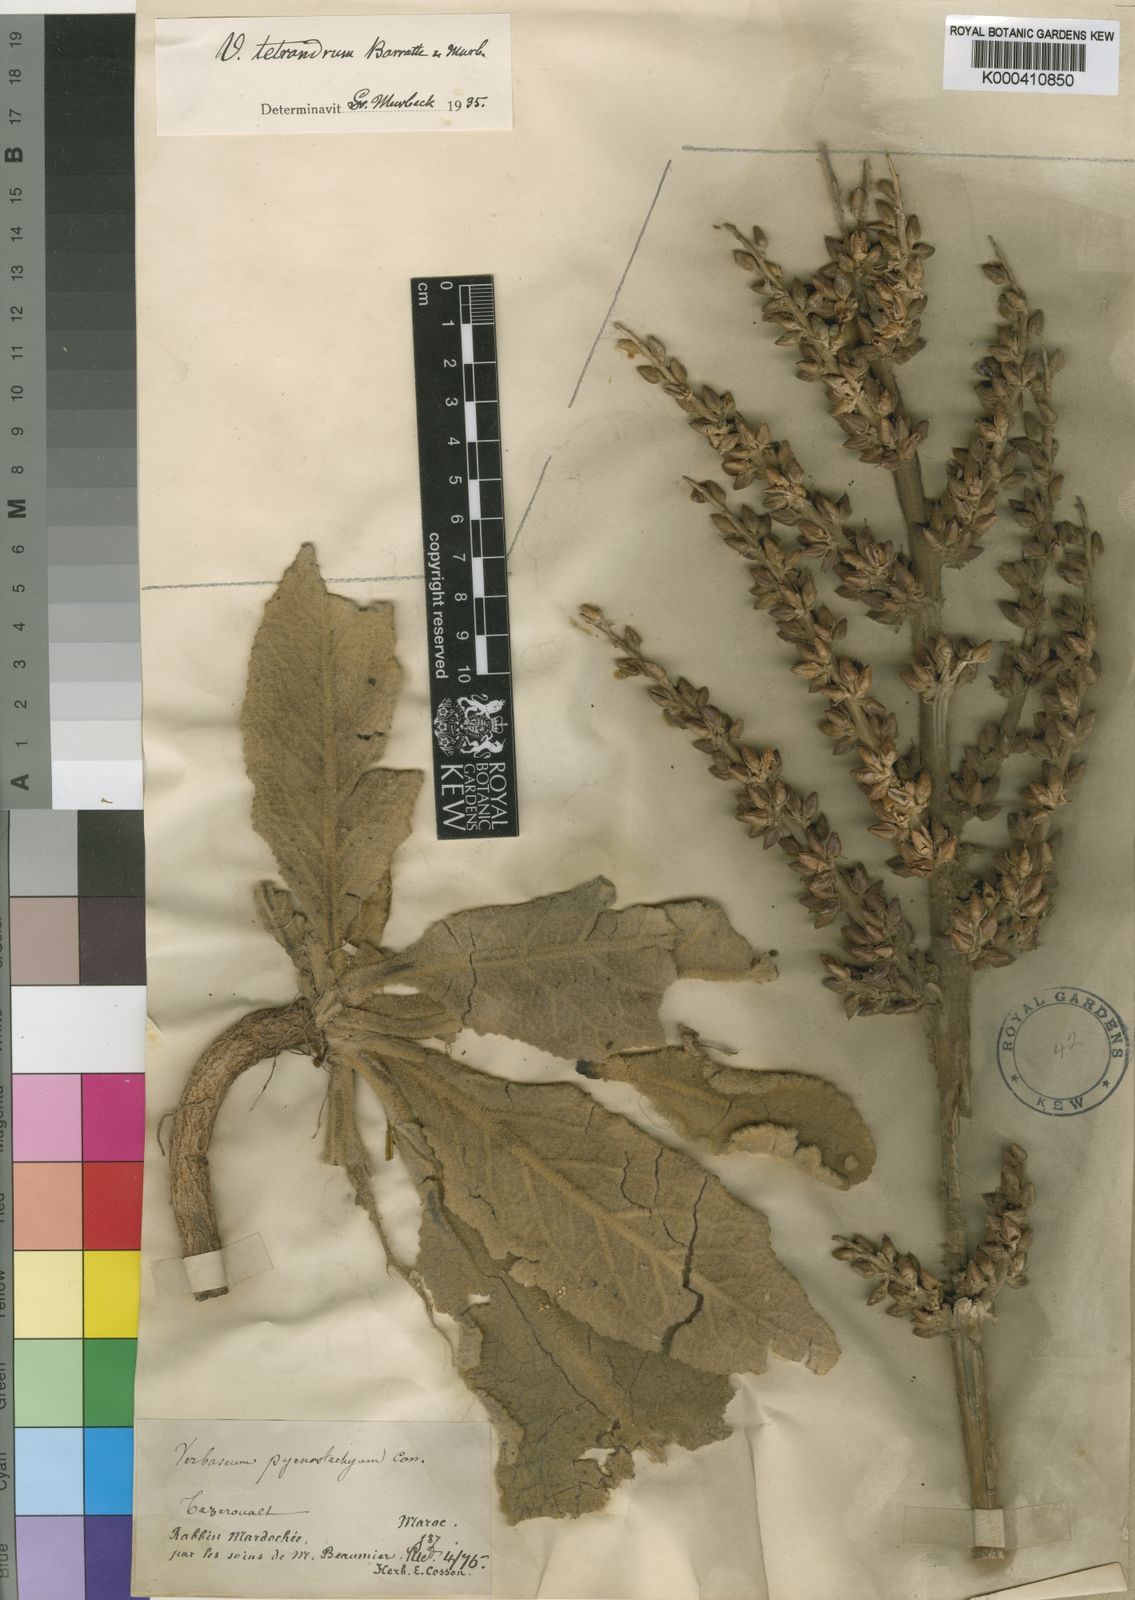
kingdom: Plantae
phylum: Tracheophyta
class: Magnoliopsida
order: Lamiales
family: Scrophulariaceae
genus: Verbascum
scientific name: Verbascum
